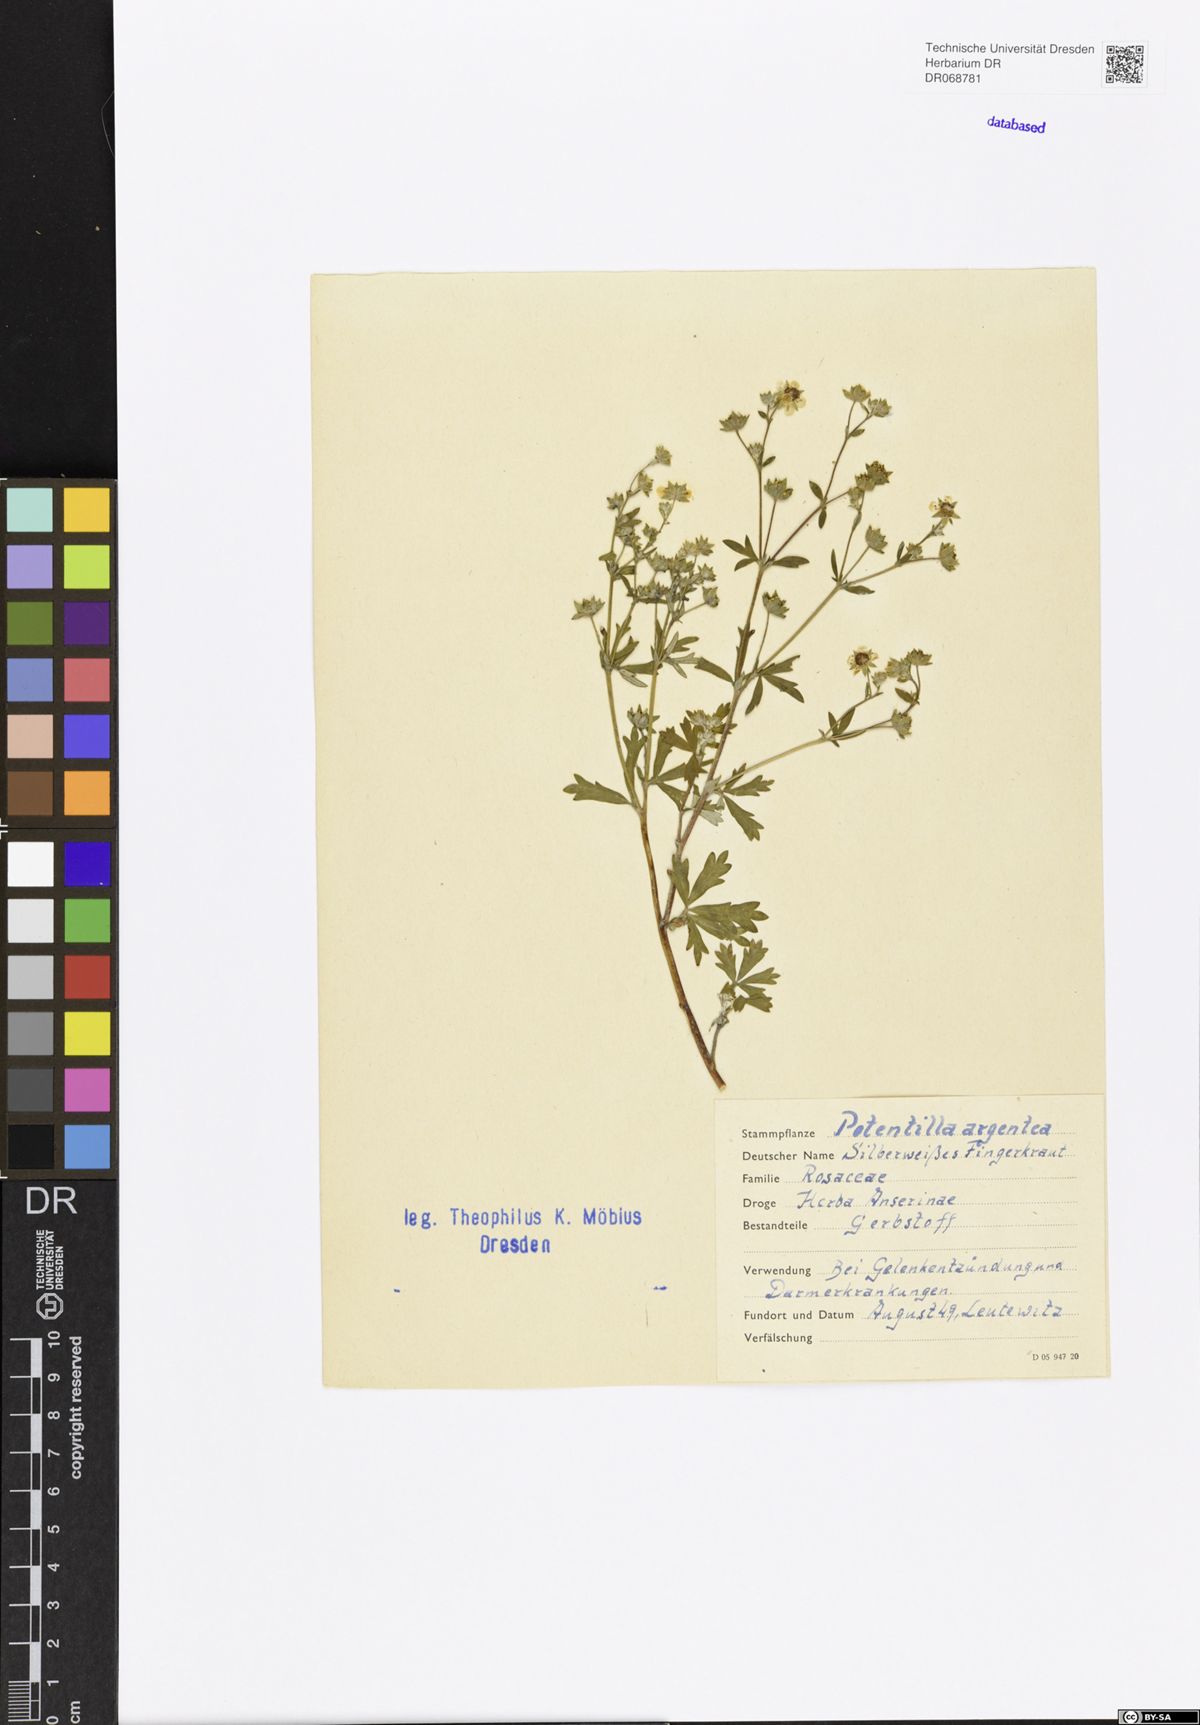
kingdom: Plantae
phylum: Tracheophyta
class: Magnoliopsida
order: Rosales
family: Rosaceae
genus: Potentilla
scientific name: Potentilla argentea
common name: Hoary cinquefoil
